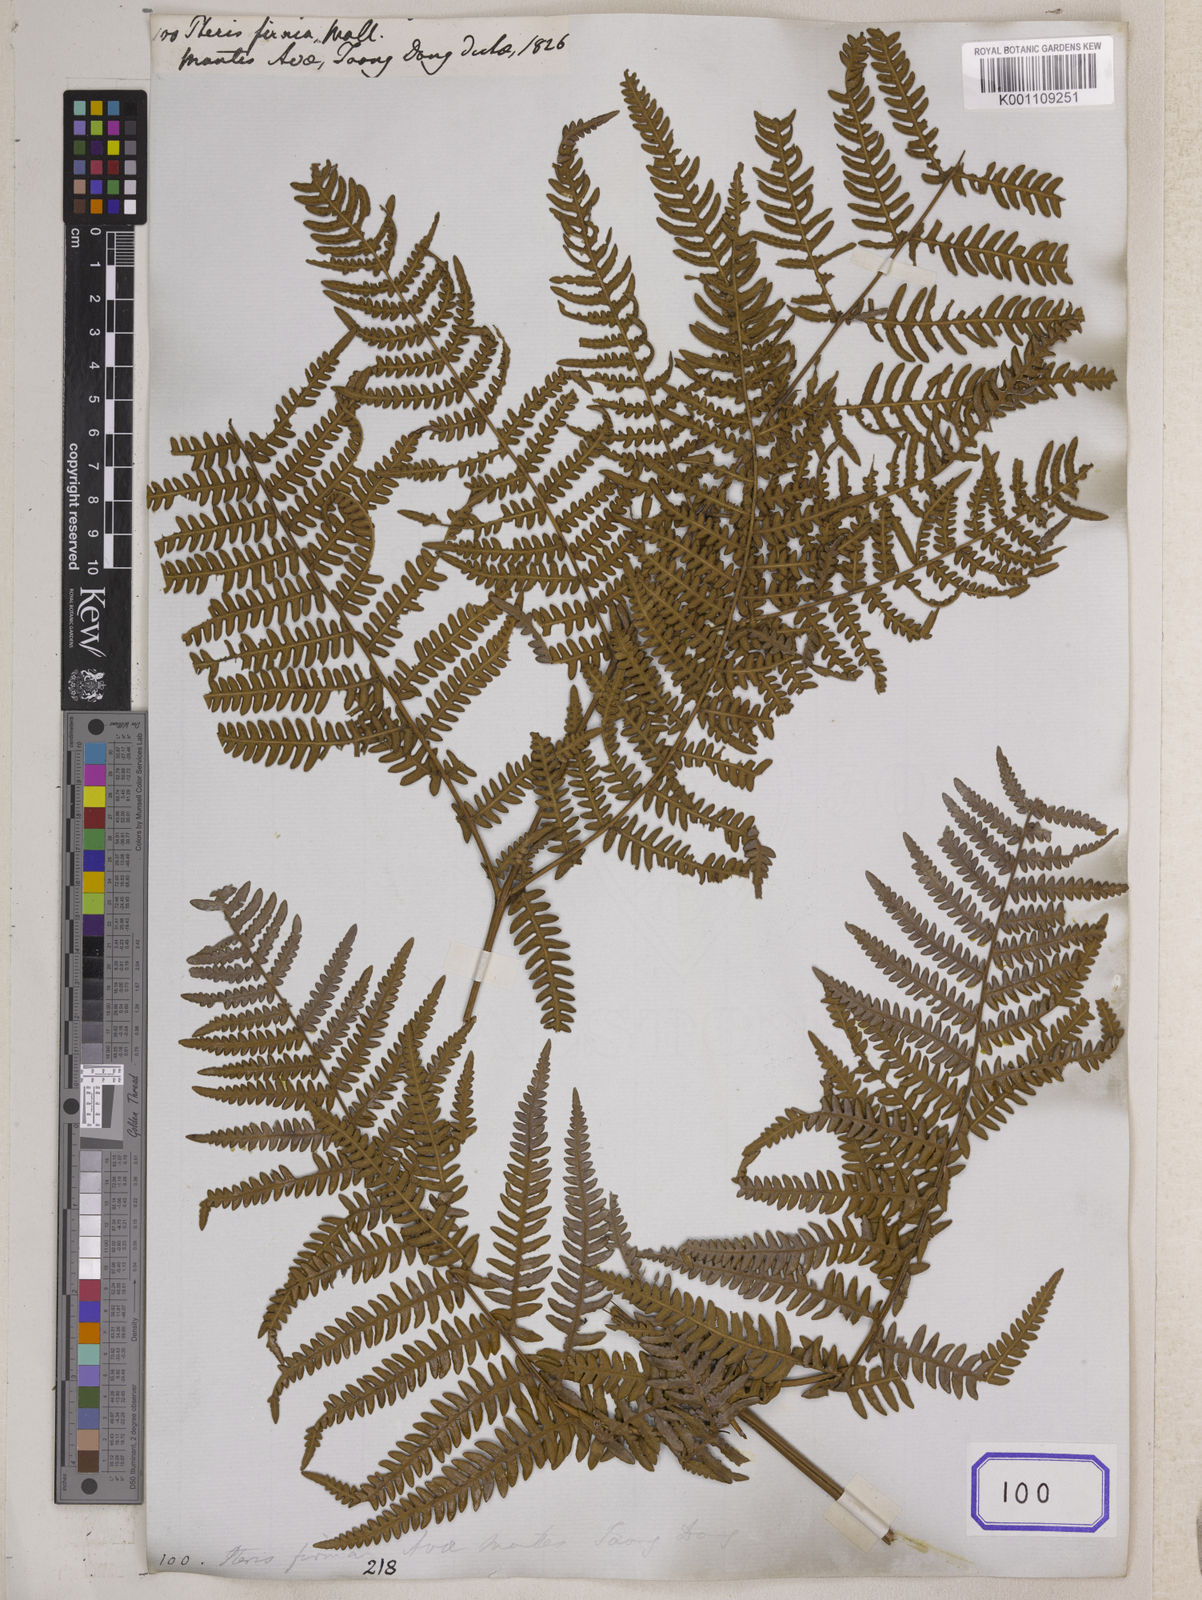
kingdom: Plantae
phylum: Tracheophyta
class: Polypodiopsida
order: Polypodiales
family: Dennstaedtiaceae
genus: Pteridium
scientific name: Pteridium aquilinum
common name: Bracken
